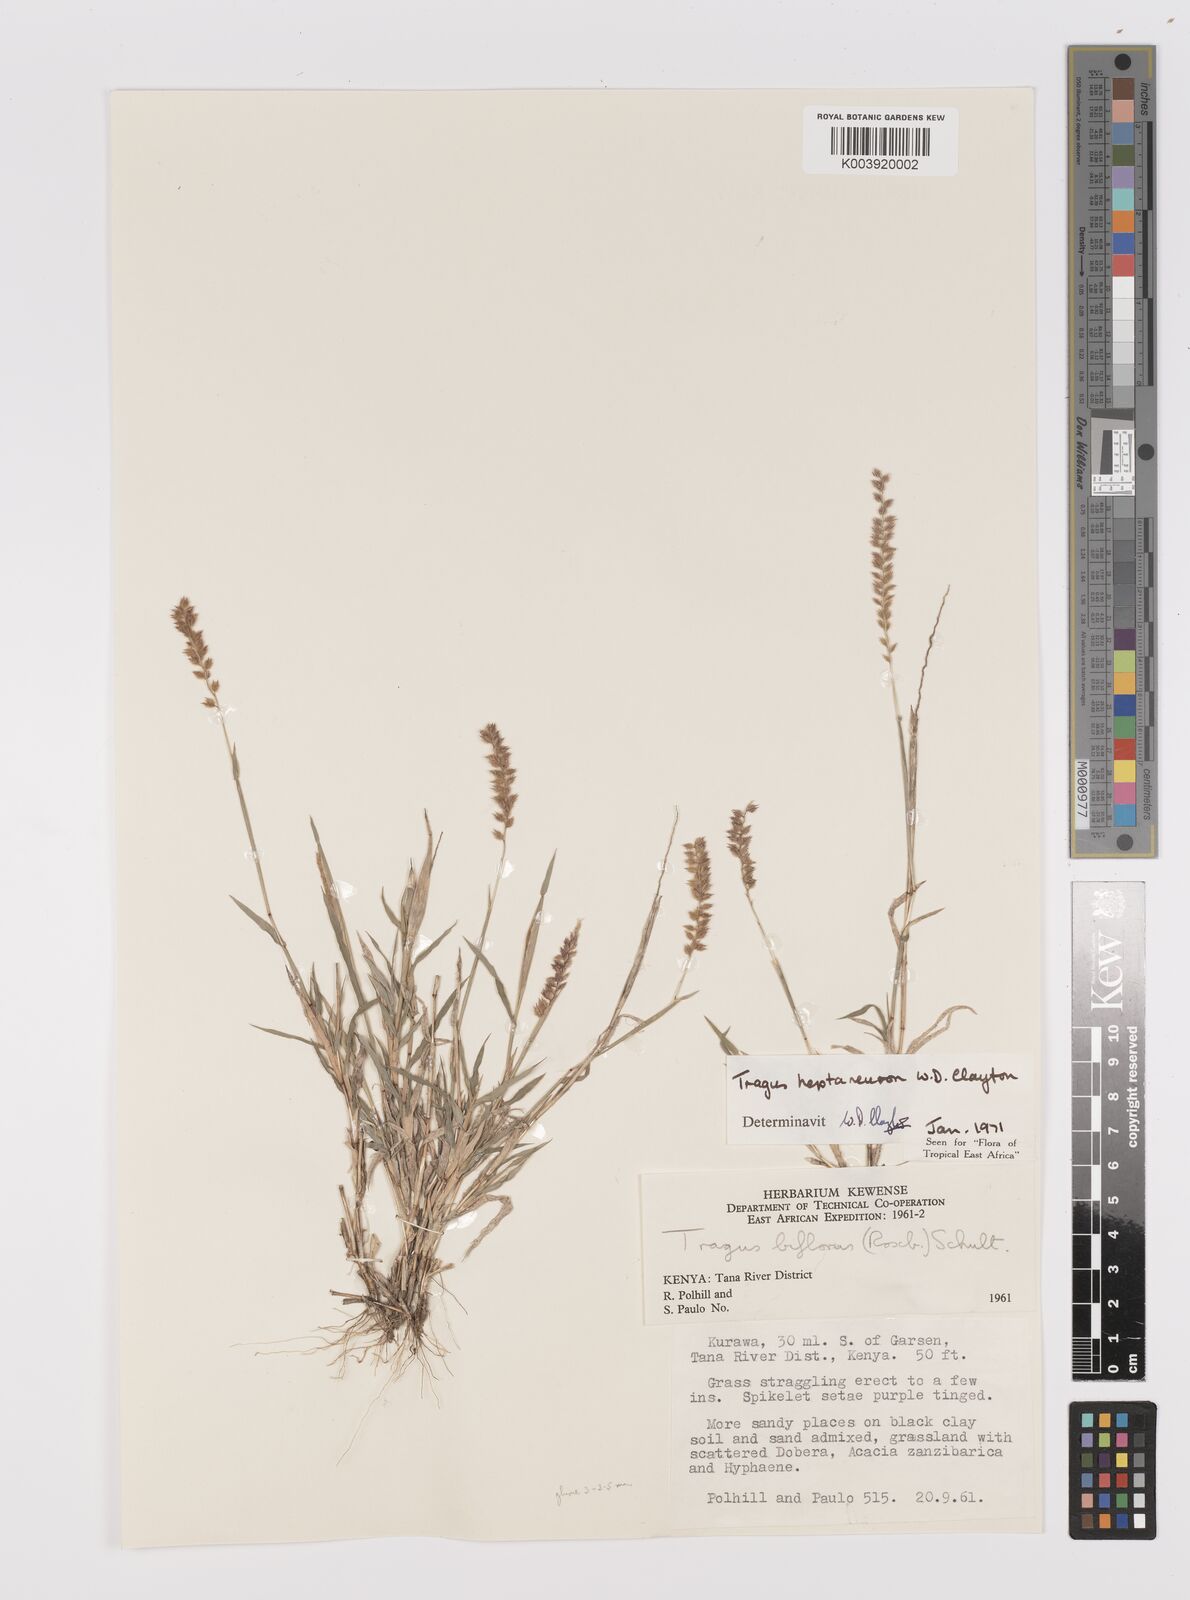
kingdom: Plantae
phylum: Tracheophyta
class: Liliopsida
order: Poales
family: Poaceae
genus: Tragus
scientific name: Tragus heptaneuron
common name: Kenya bur grass
